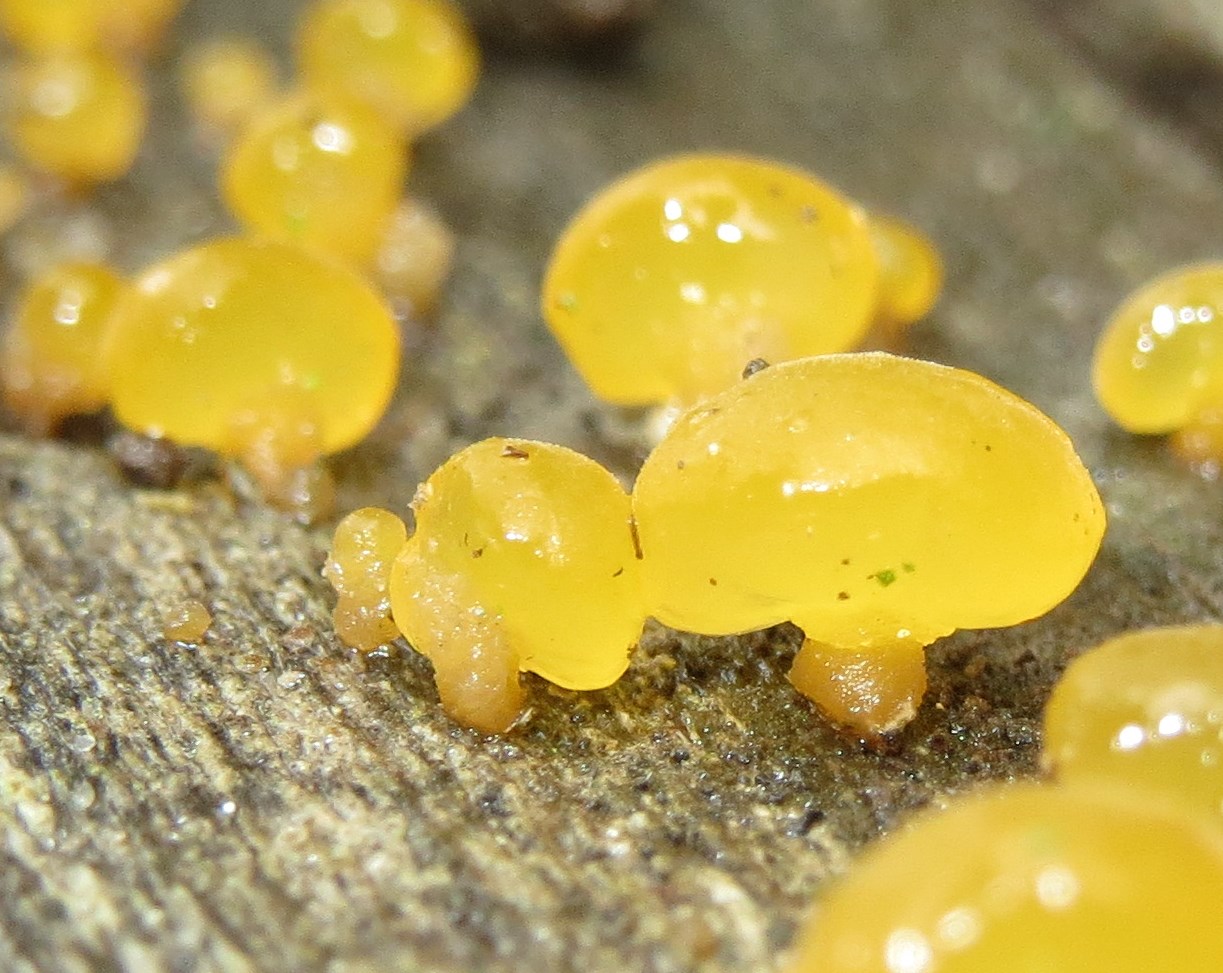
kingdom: Fungi
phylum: Basidiomycota
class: Dacrymycetes
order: Dacrymycetales
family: Dacrymycetaceae
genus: Dacrymyces
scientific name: Dacrymyces capitatus
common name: stilket tåresvamp
